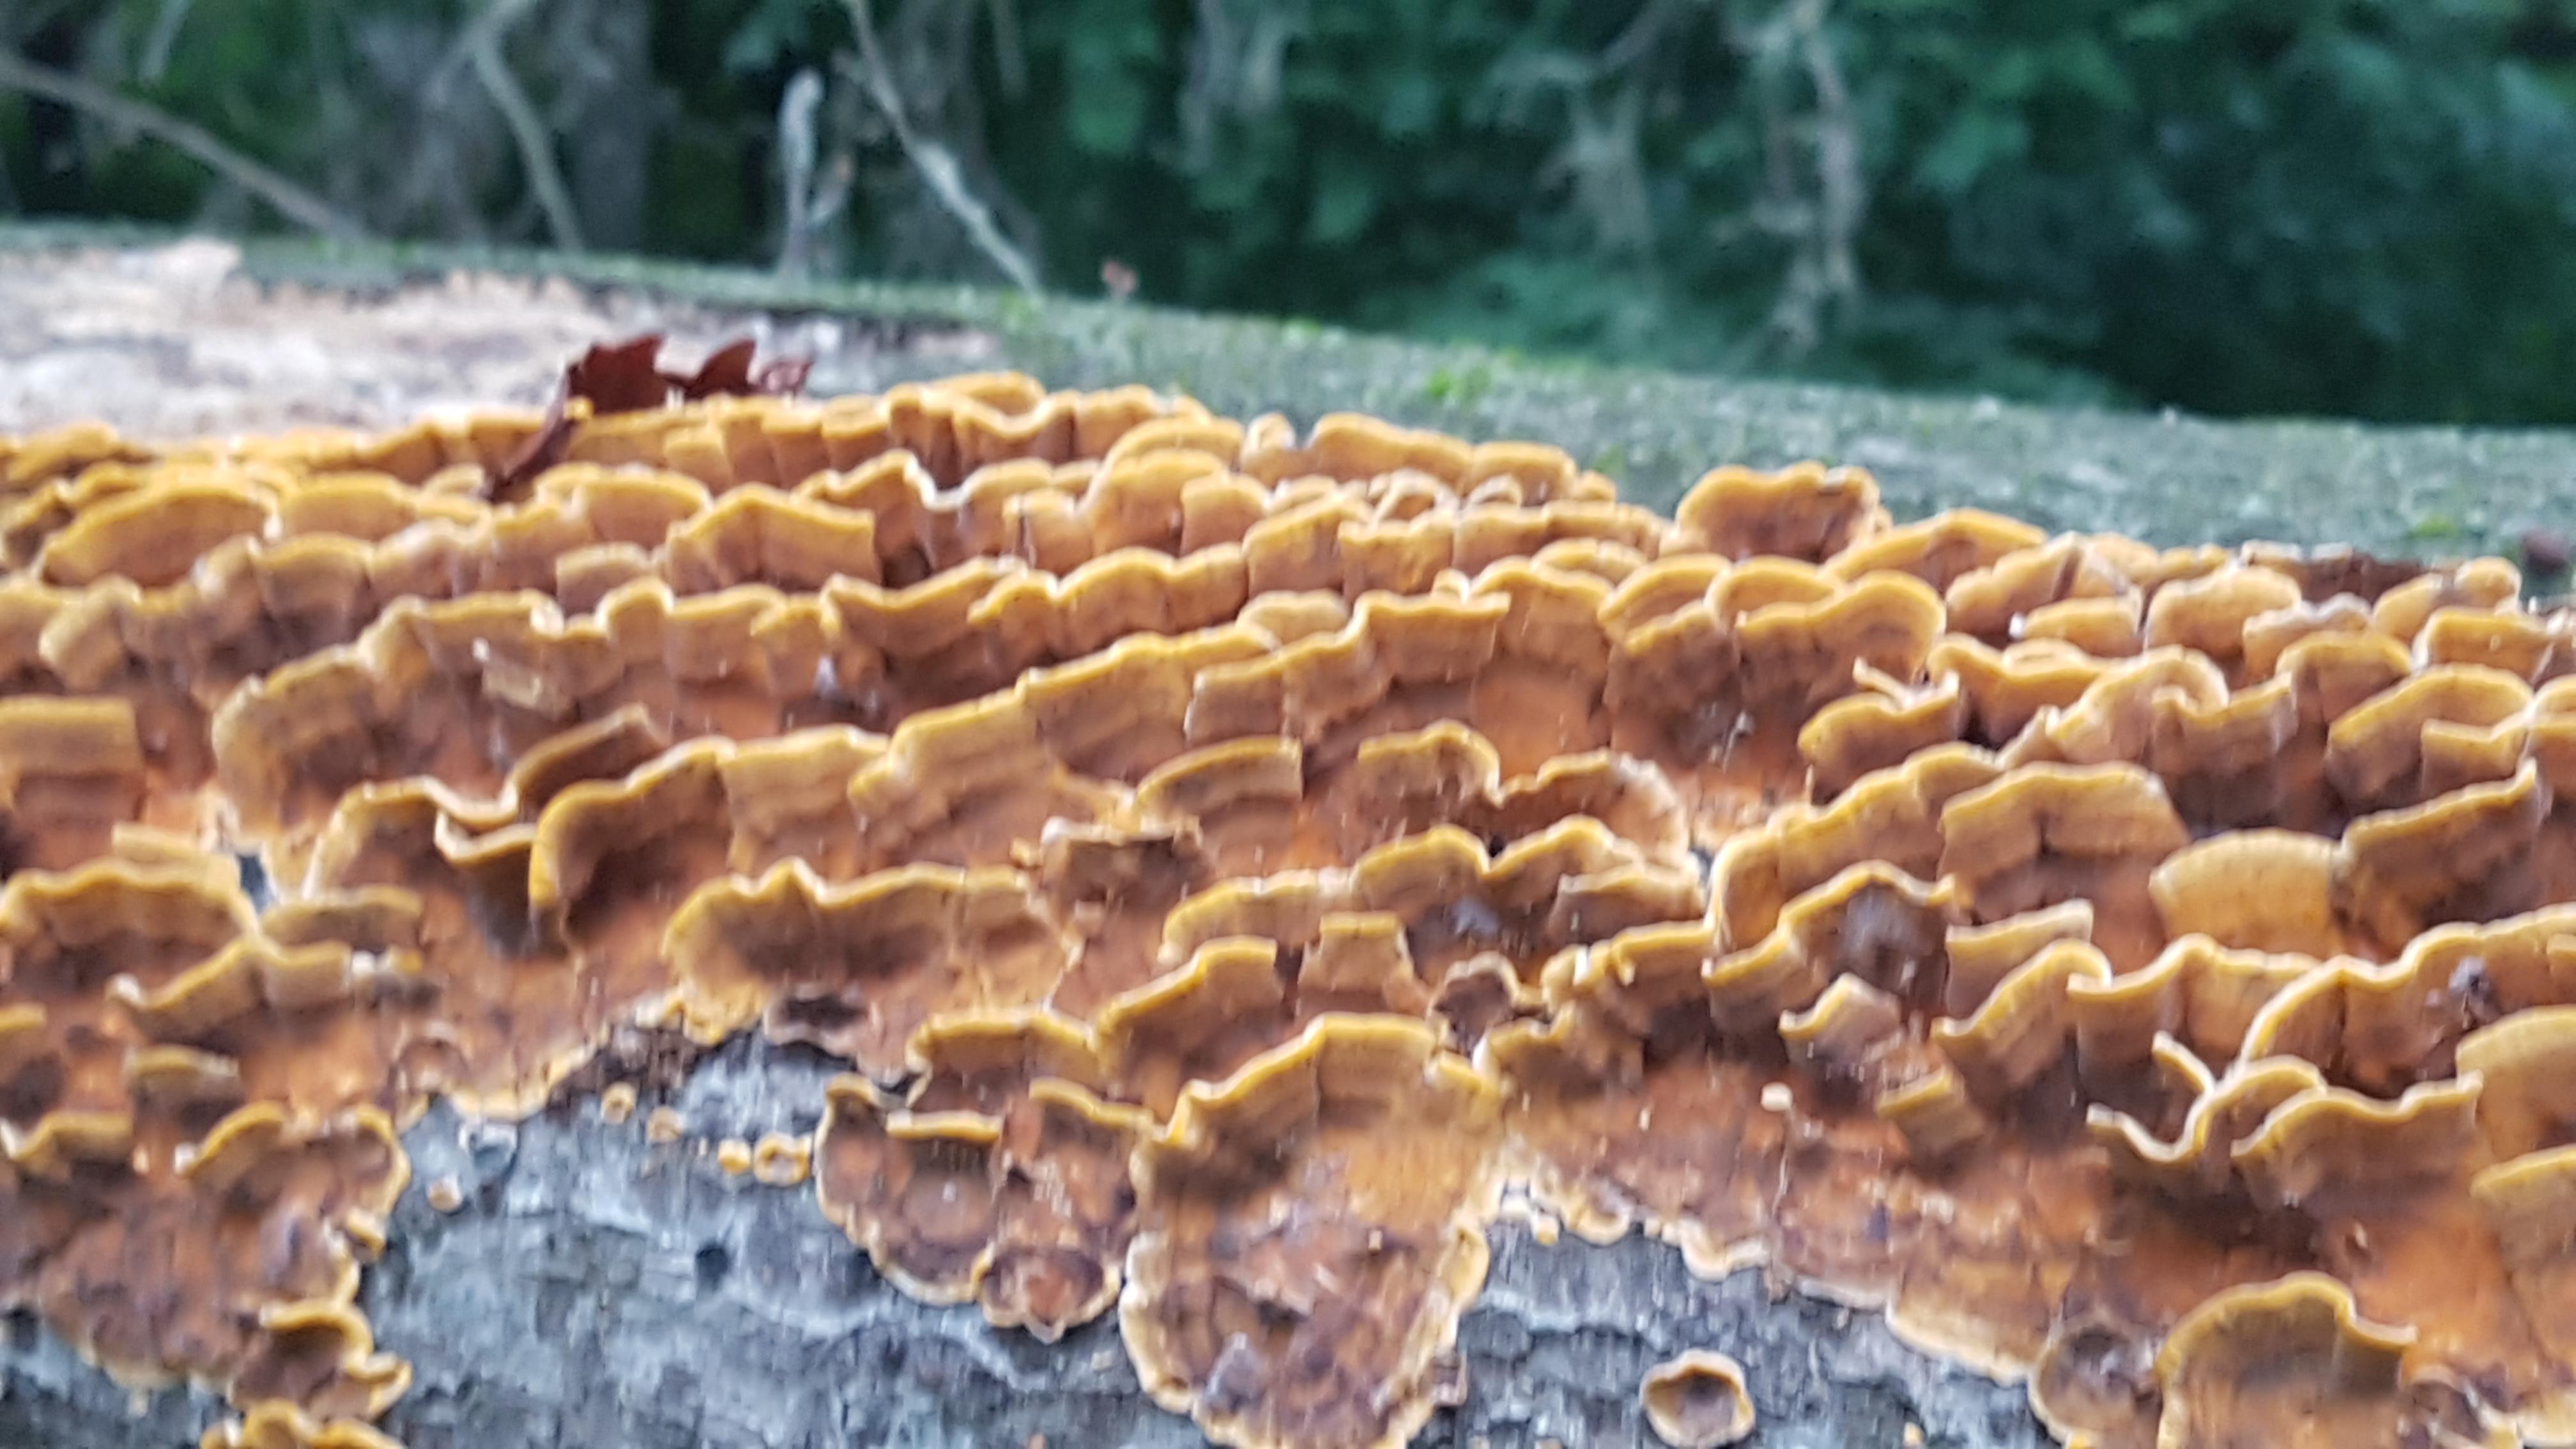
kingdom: Fungi
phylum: Basidiomycota
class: Agaricomycetes
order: Russulales
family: Stereaceae
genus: Stereum
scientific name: Stereum hirsutum
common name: håret lædersvamp
